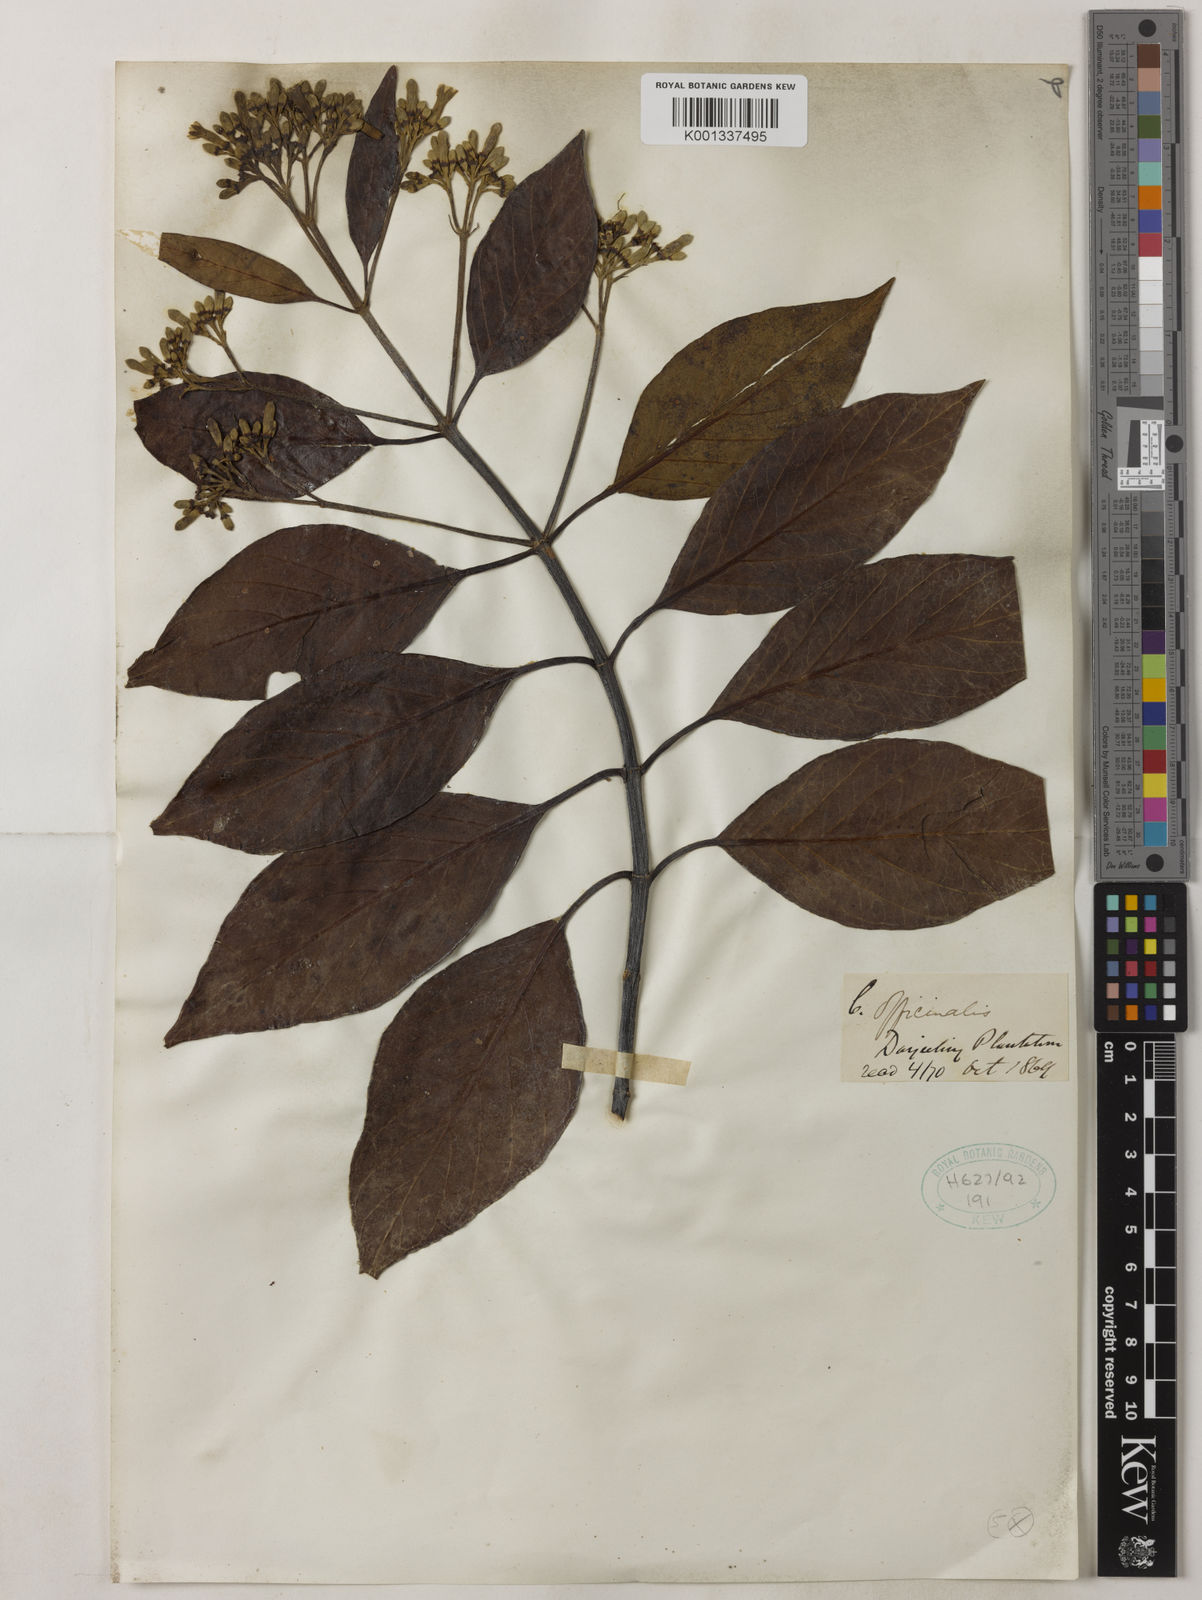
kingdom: Plantae
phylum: Tracheophyta
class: Magnoliopsida
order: Gentianales
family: Rubiaceae
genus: Cinchona
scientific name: Cinchona officinalis
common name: Lojabark
